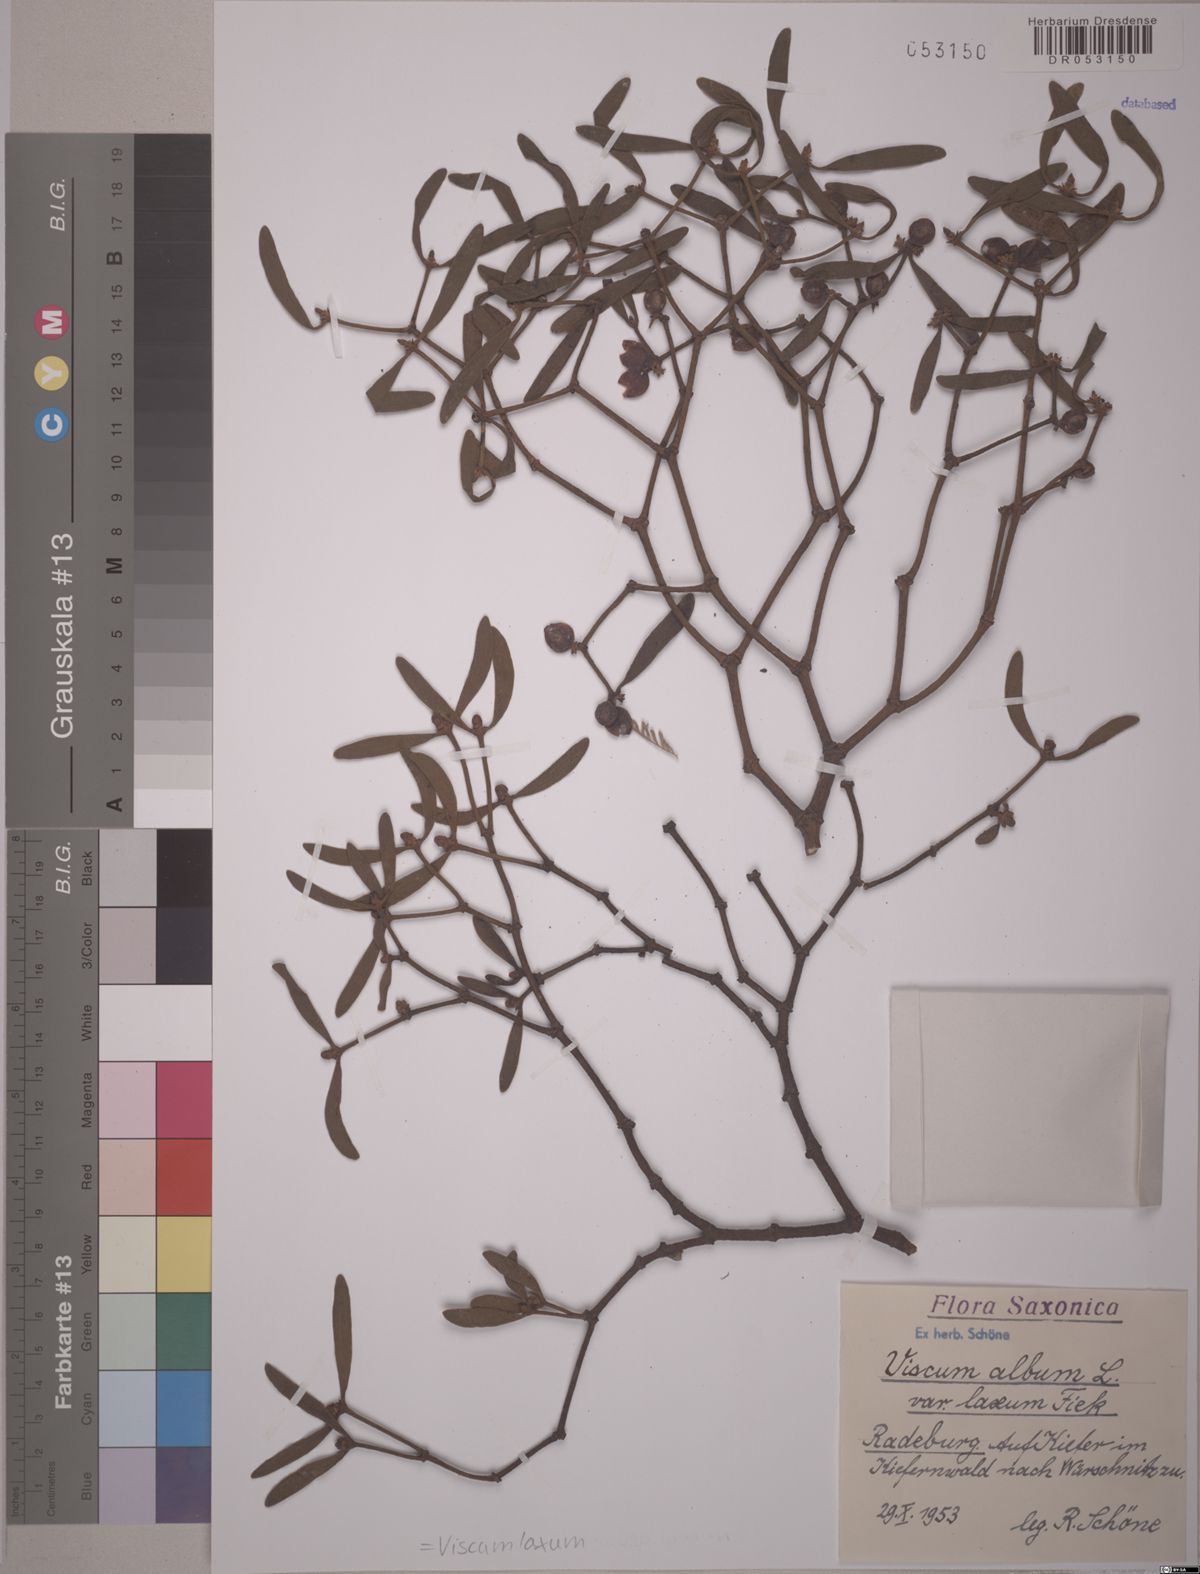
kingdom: Plantae
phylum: Tracheophyta
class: Magnoliopsida
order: Santalales
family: Viscaceae
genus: Viscum
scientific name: Viscum laxum
